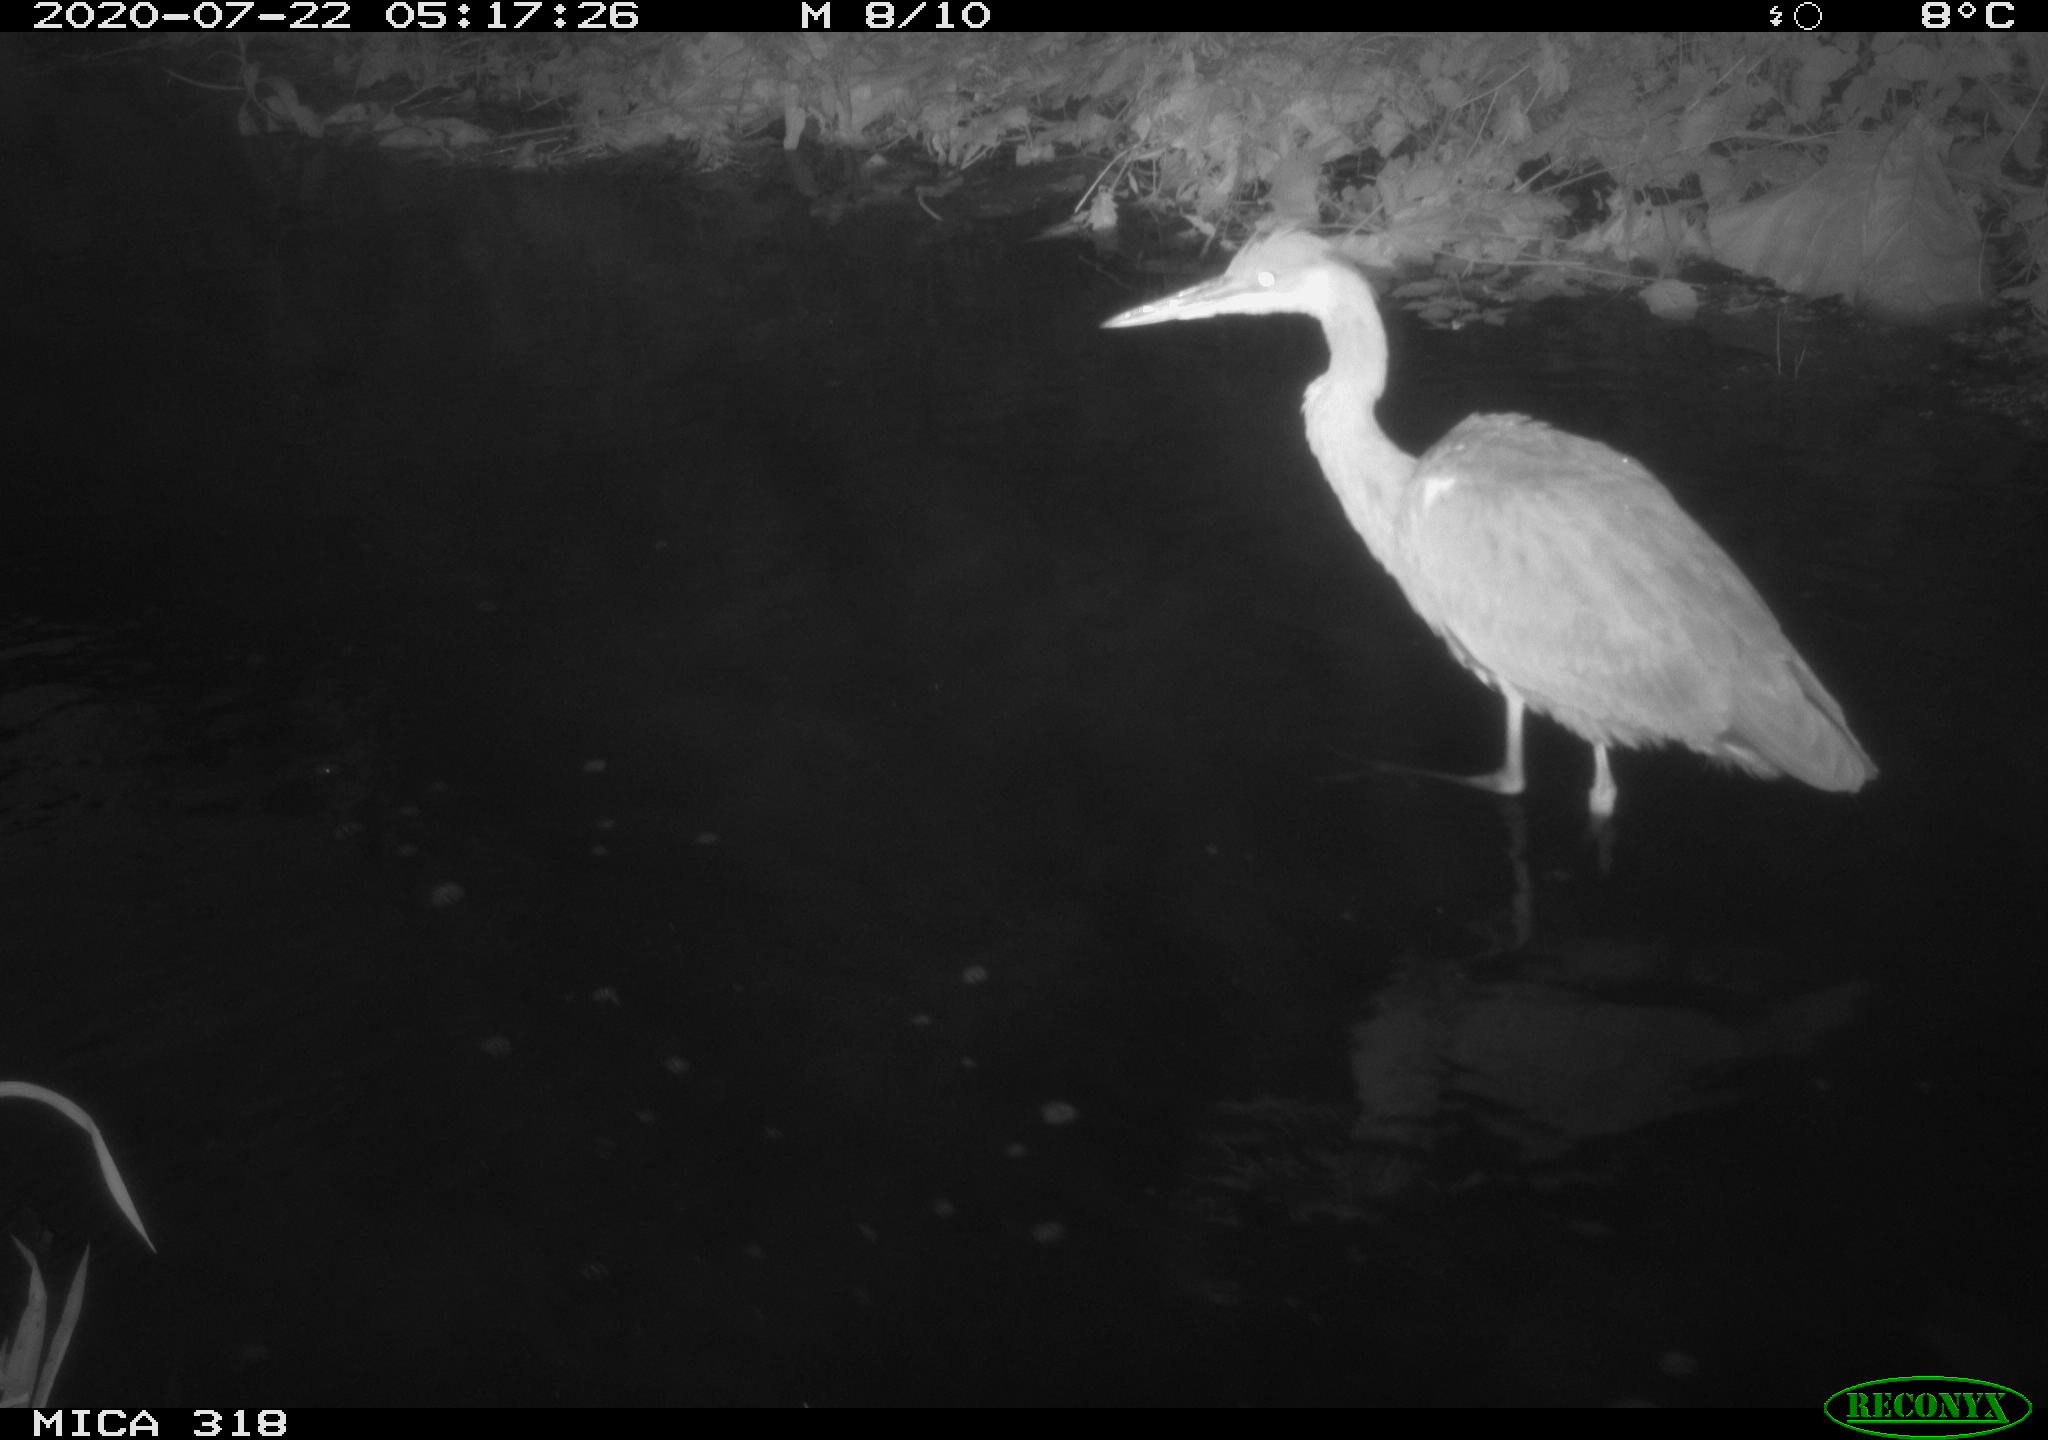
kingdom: Animalia
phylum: Chordata
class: Aves
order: Pelecaniformes
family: Ardeidae
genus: Ardea
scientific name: Ardea cinerea
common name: Grey heron
